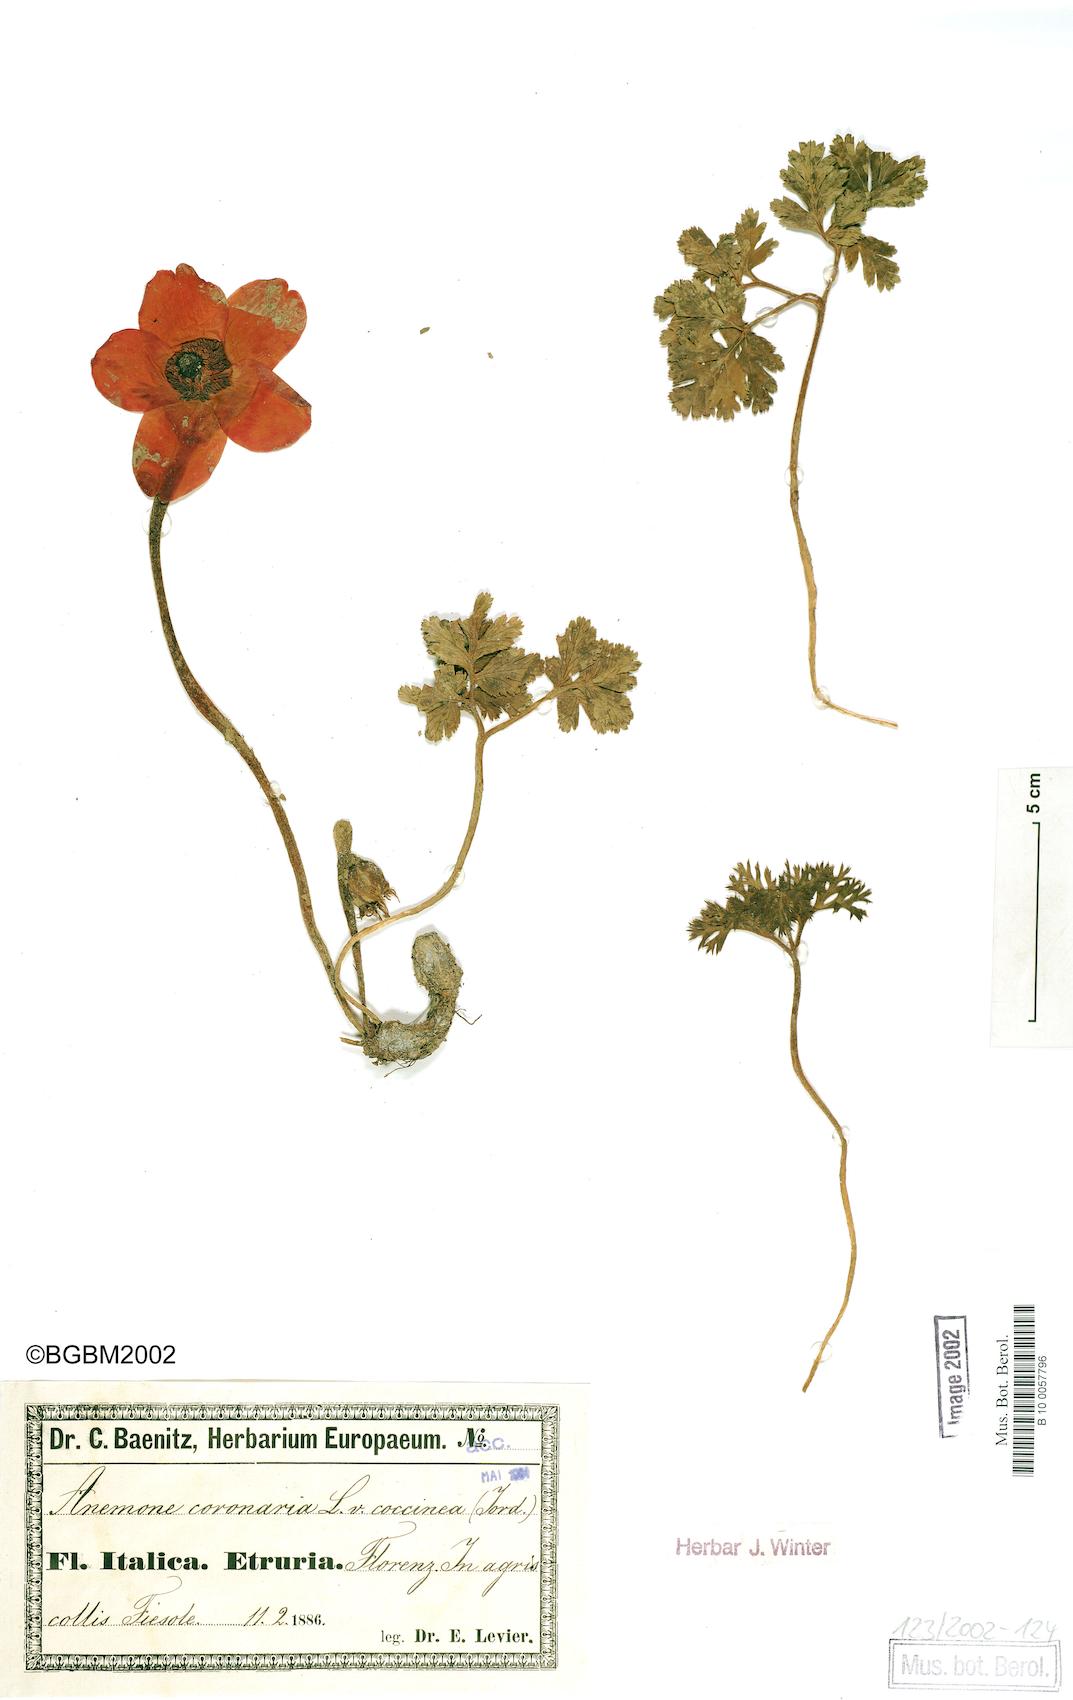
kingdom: Plantae
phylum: Tracheophyta
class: Magnoliopsida
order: Ranunculales
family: Ranunculaceae
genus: Anemone
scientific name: Anemone coronaria
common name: Poppy anemone
